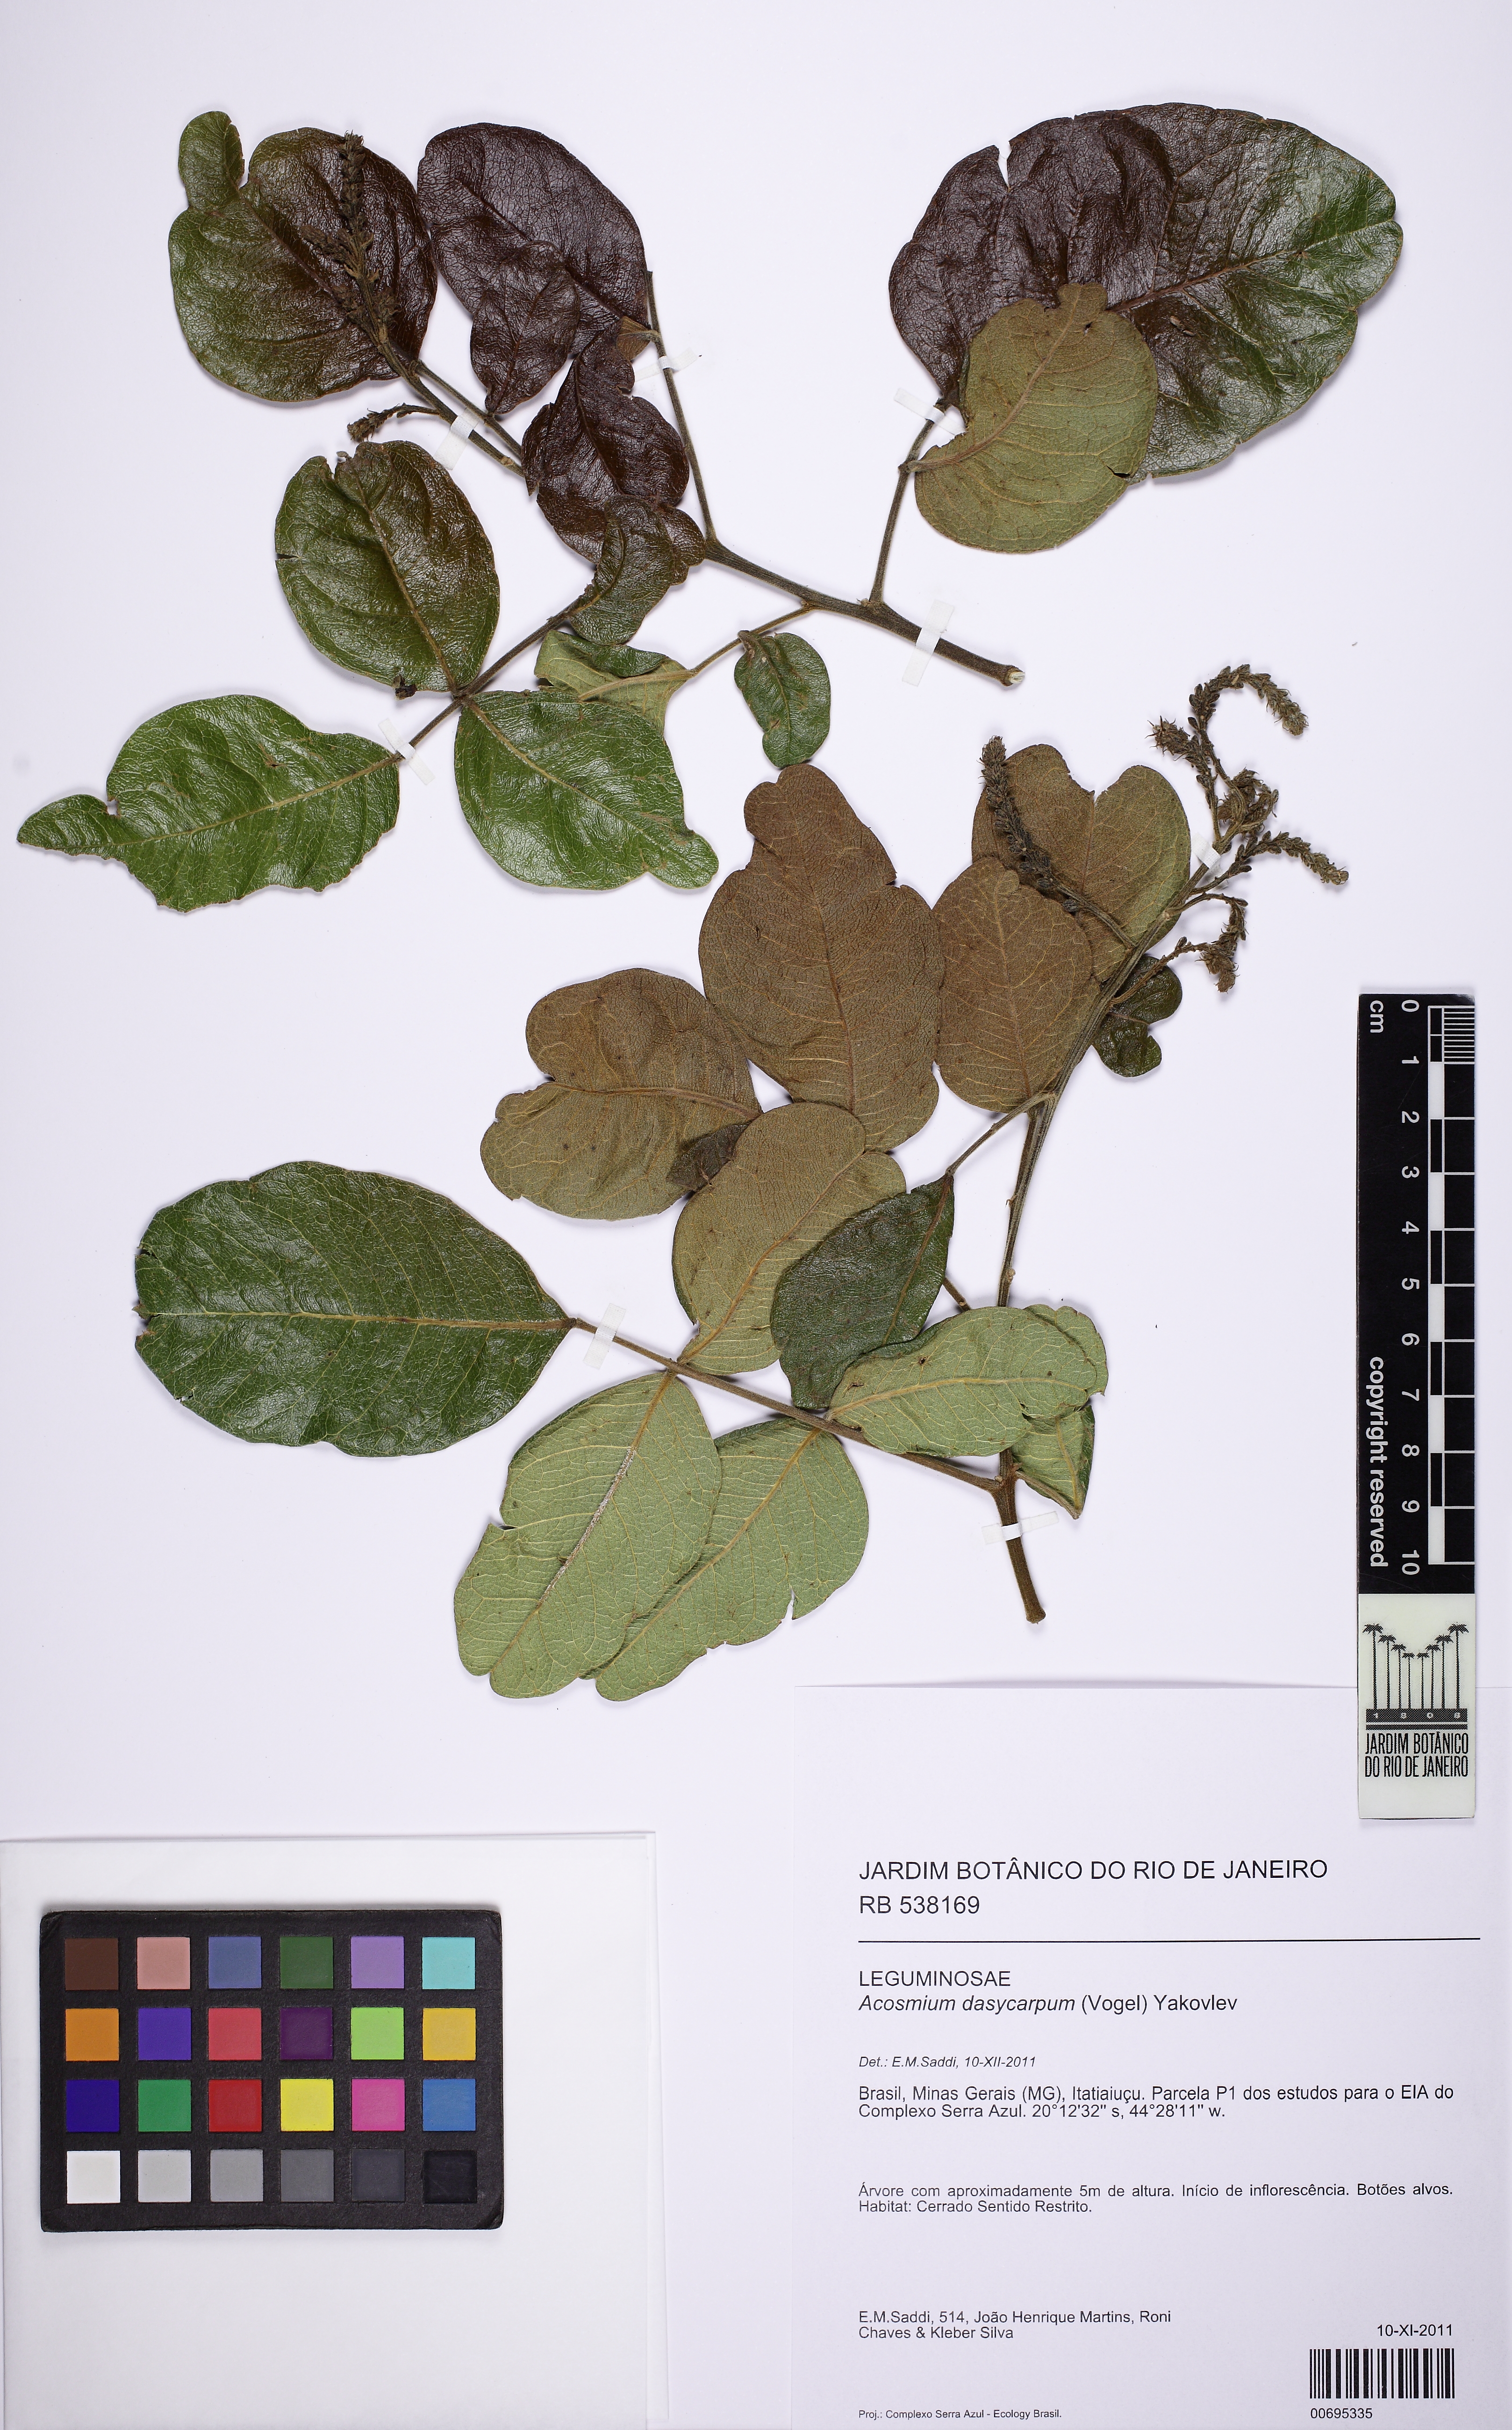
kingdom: Plantae
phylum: Tracheophyta
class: Magnoliopsida
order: Fabales
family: Fabaceae
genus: Leptolobium
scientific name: Leptolobium dasycarpum
